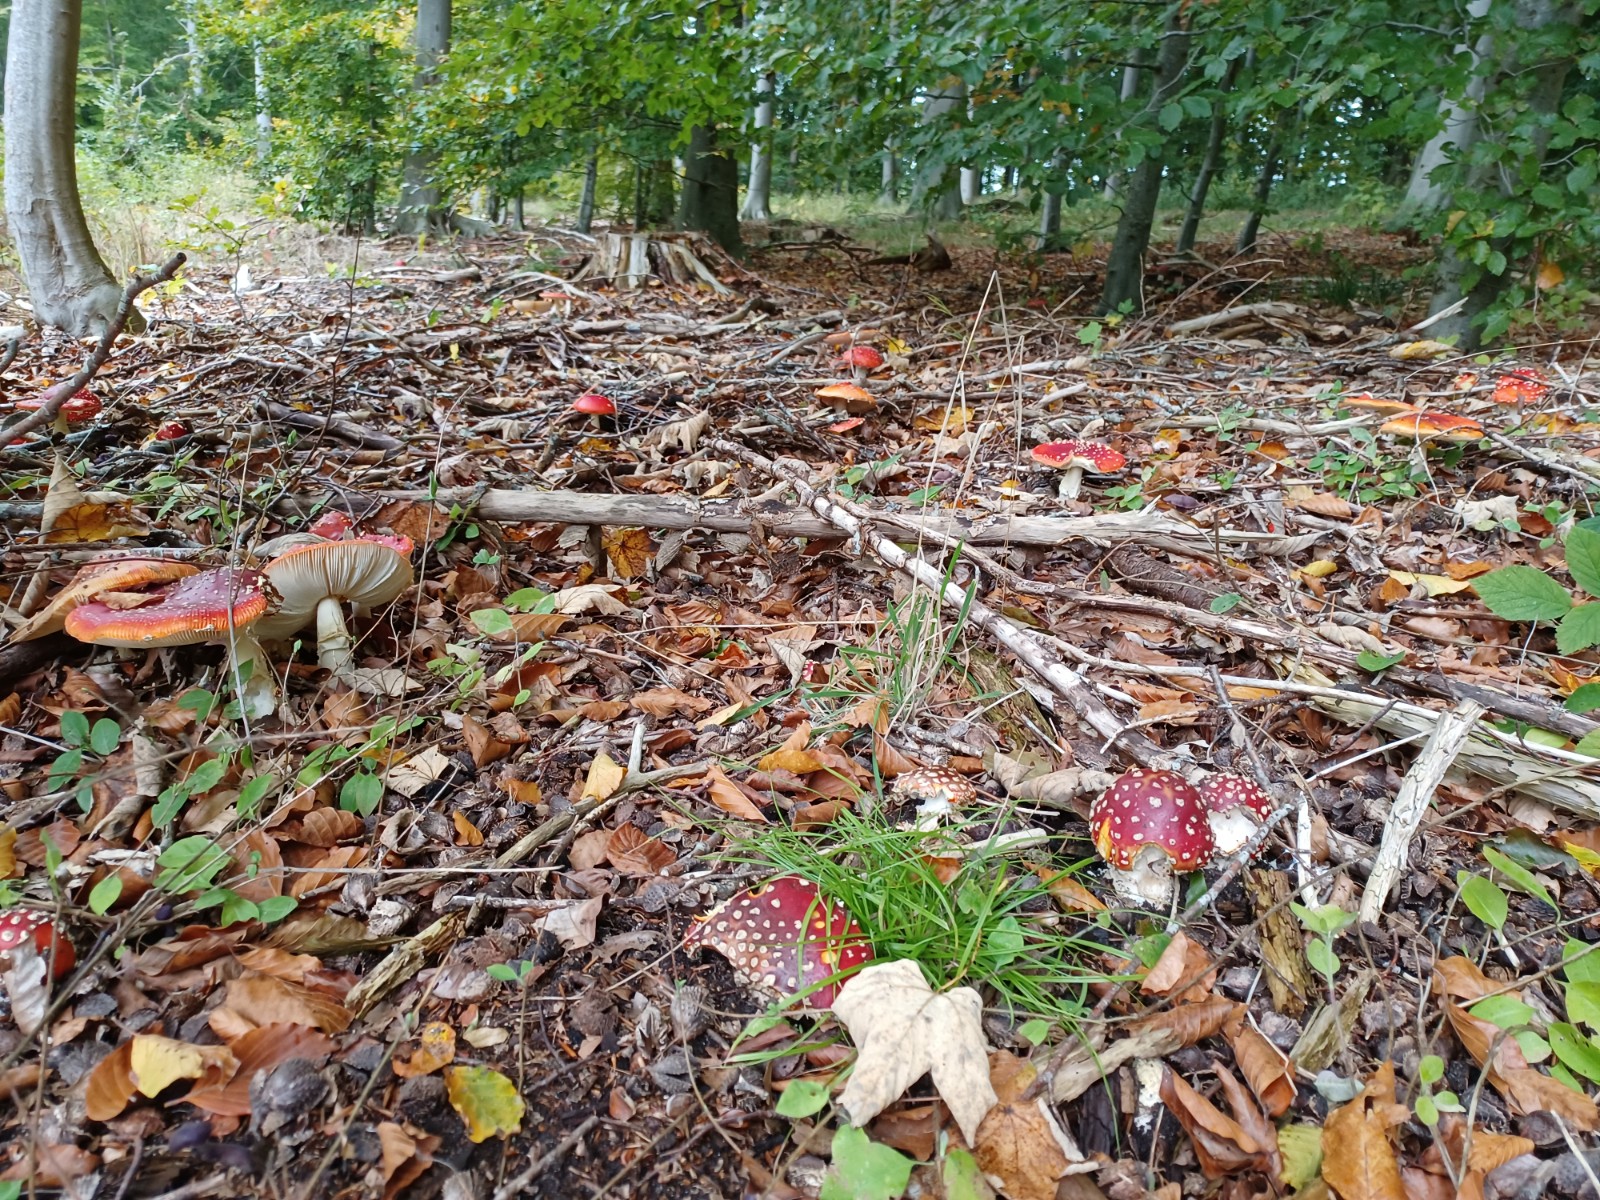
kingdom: Fungi
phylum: Basidiomycota
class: Agaricomycetes
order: Agaricales
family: Amanitaceae
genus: Amanita
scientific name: Amanita muscaria
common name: rød fluesvamp
